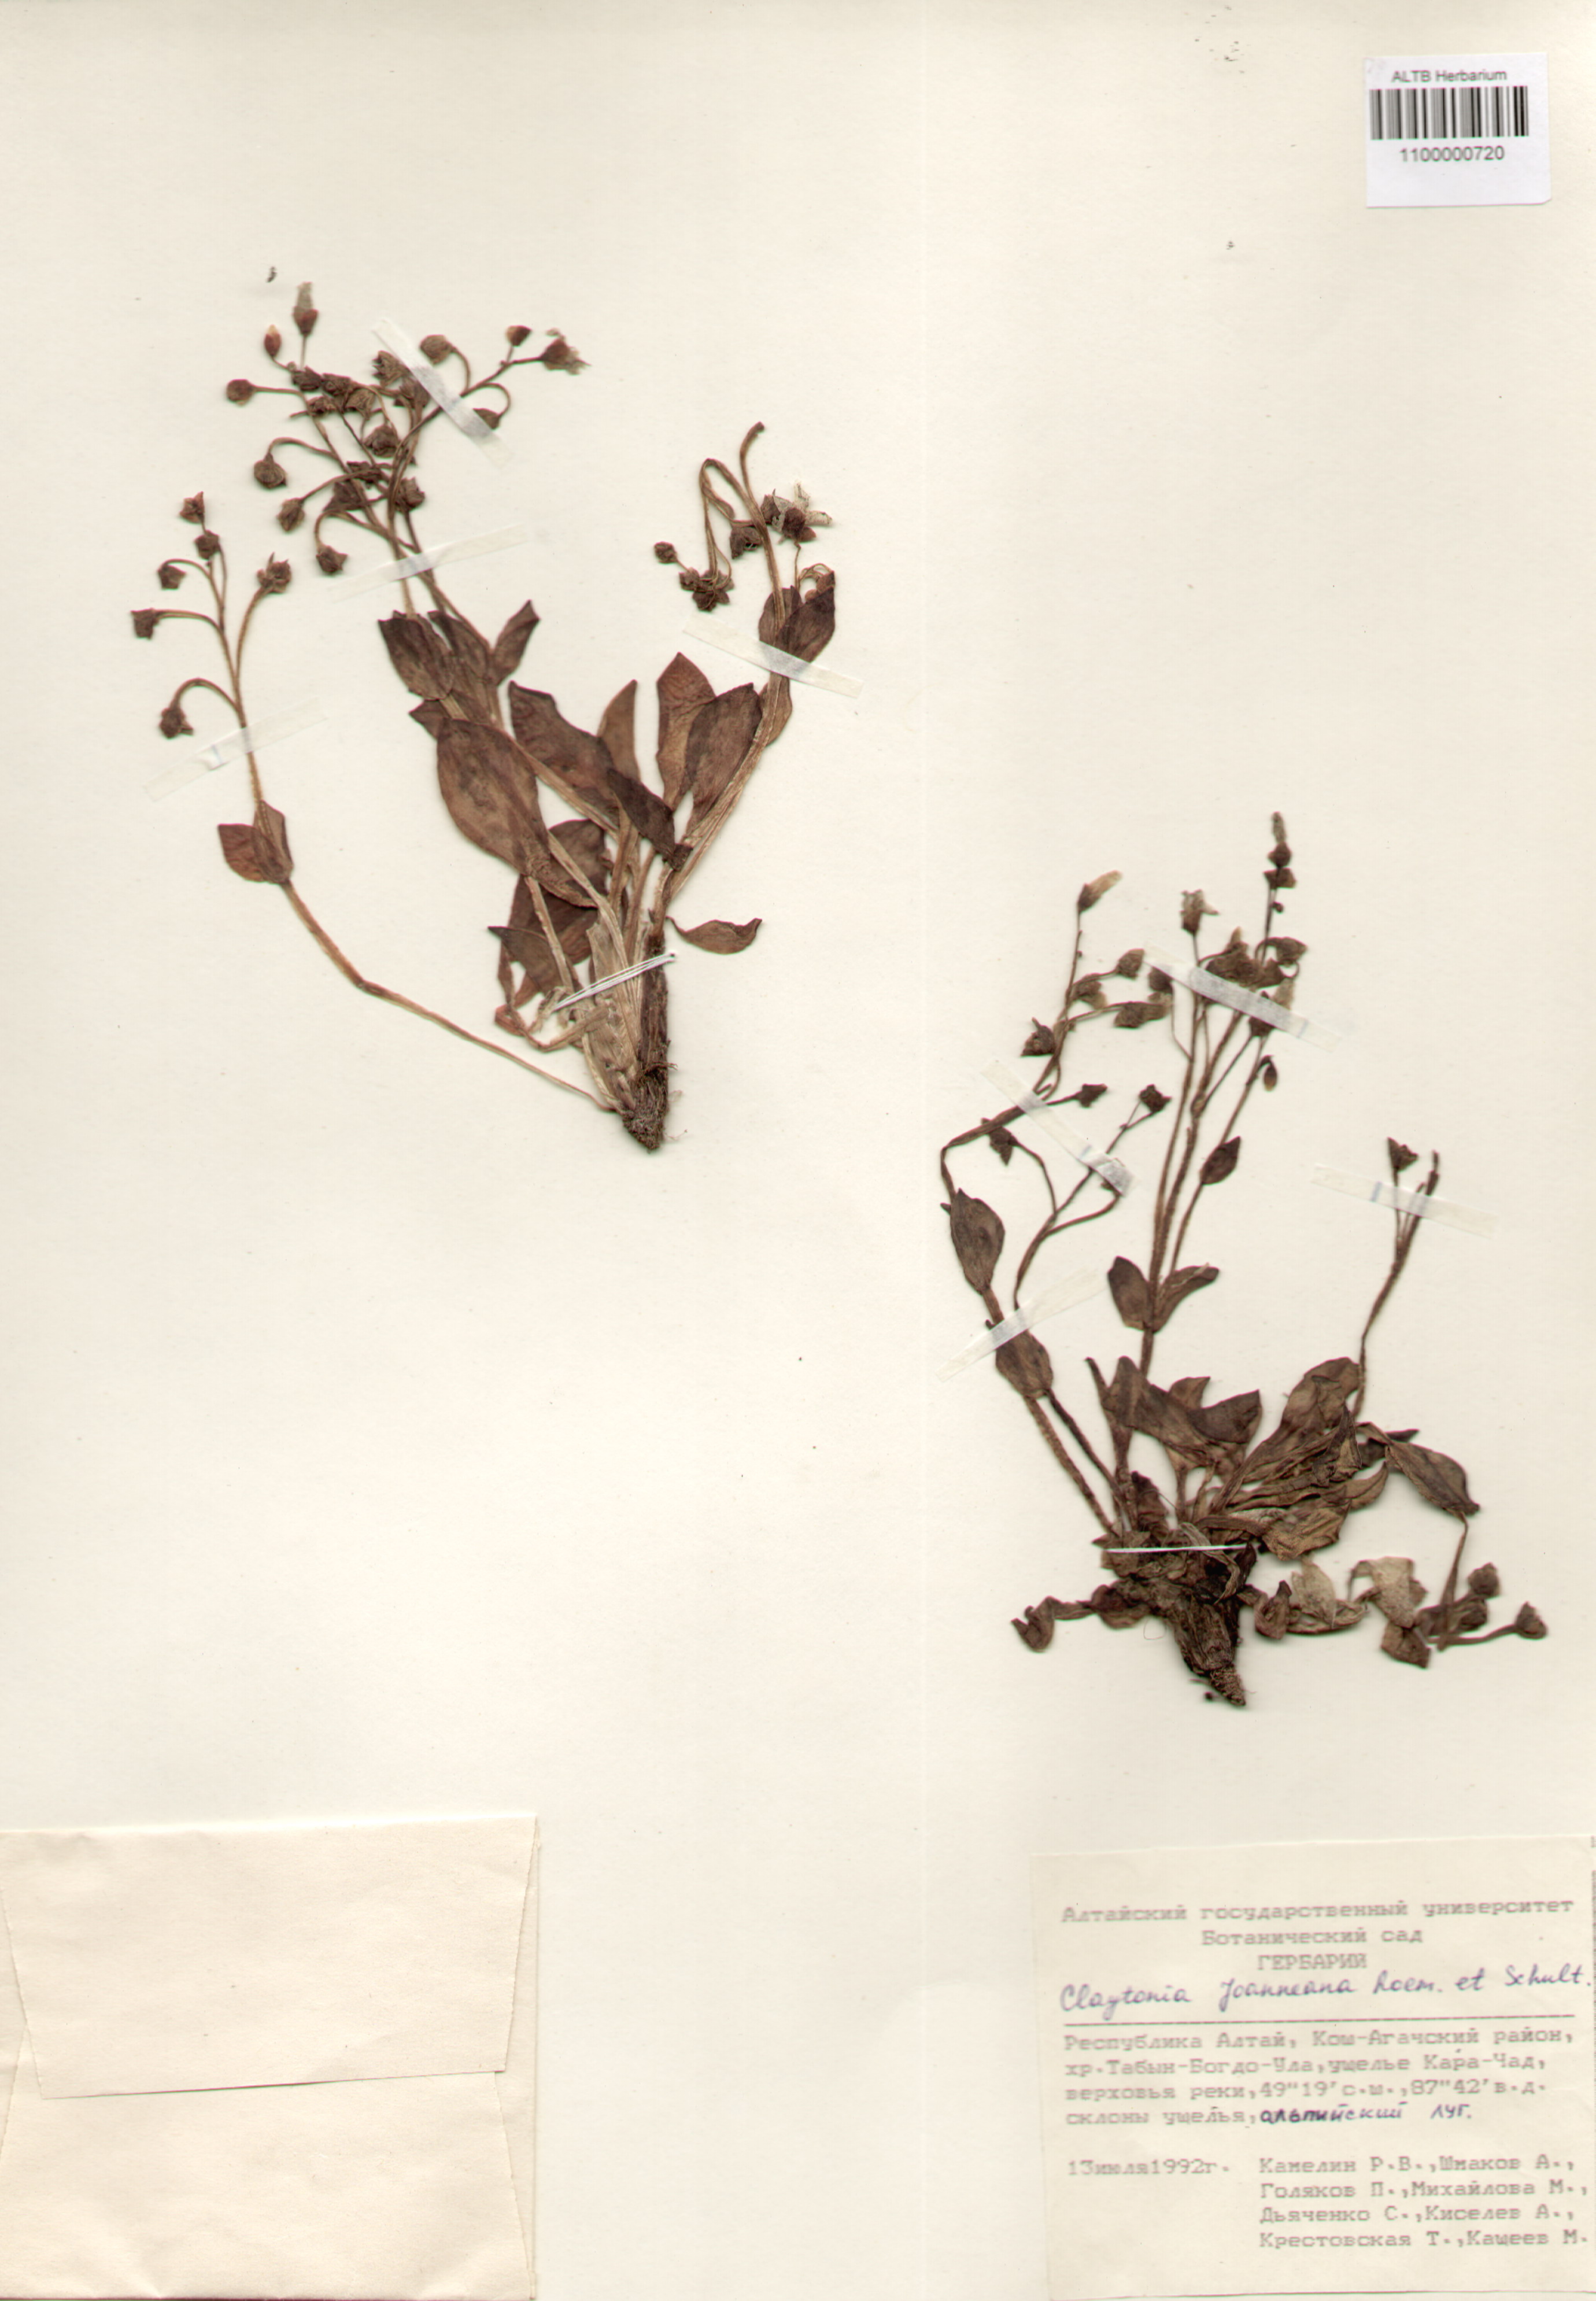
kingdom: Plantae
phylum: Tracheophyta
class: Magnoliopsida
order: Caryophyllales
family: Montiaceae
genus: Claytonia
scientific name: Claytonia joanneana
